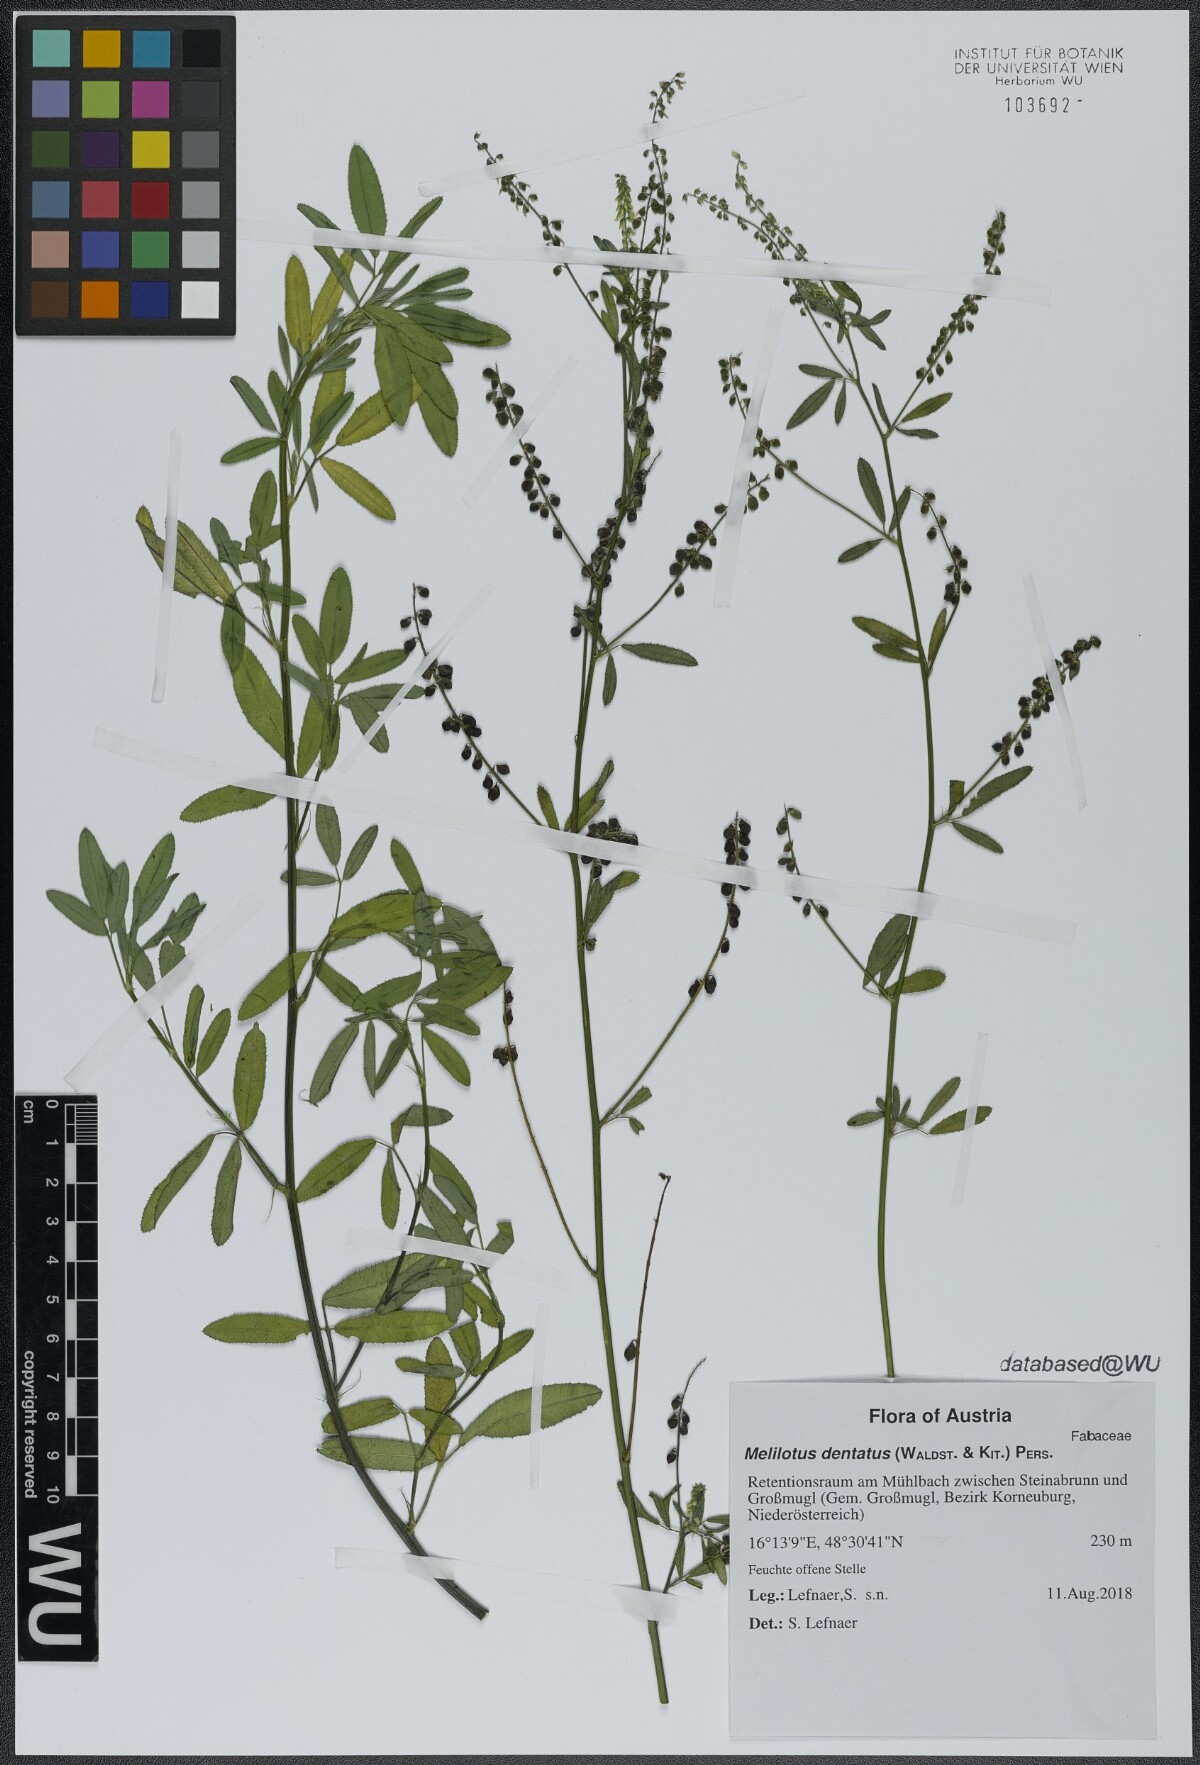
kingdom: Plantae
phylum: Tracheophyta
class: Magnoliopsida
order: Fabales
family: Fabaceae
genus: Melilotus
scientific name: Melilotus dentatus
